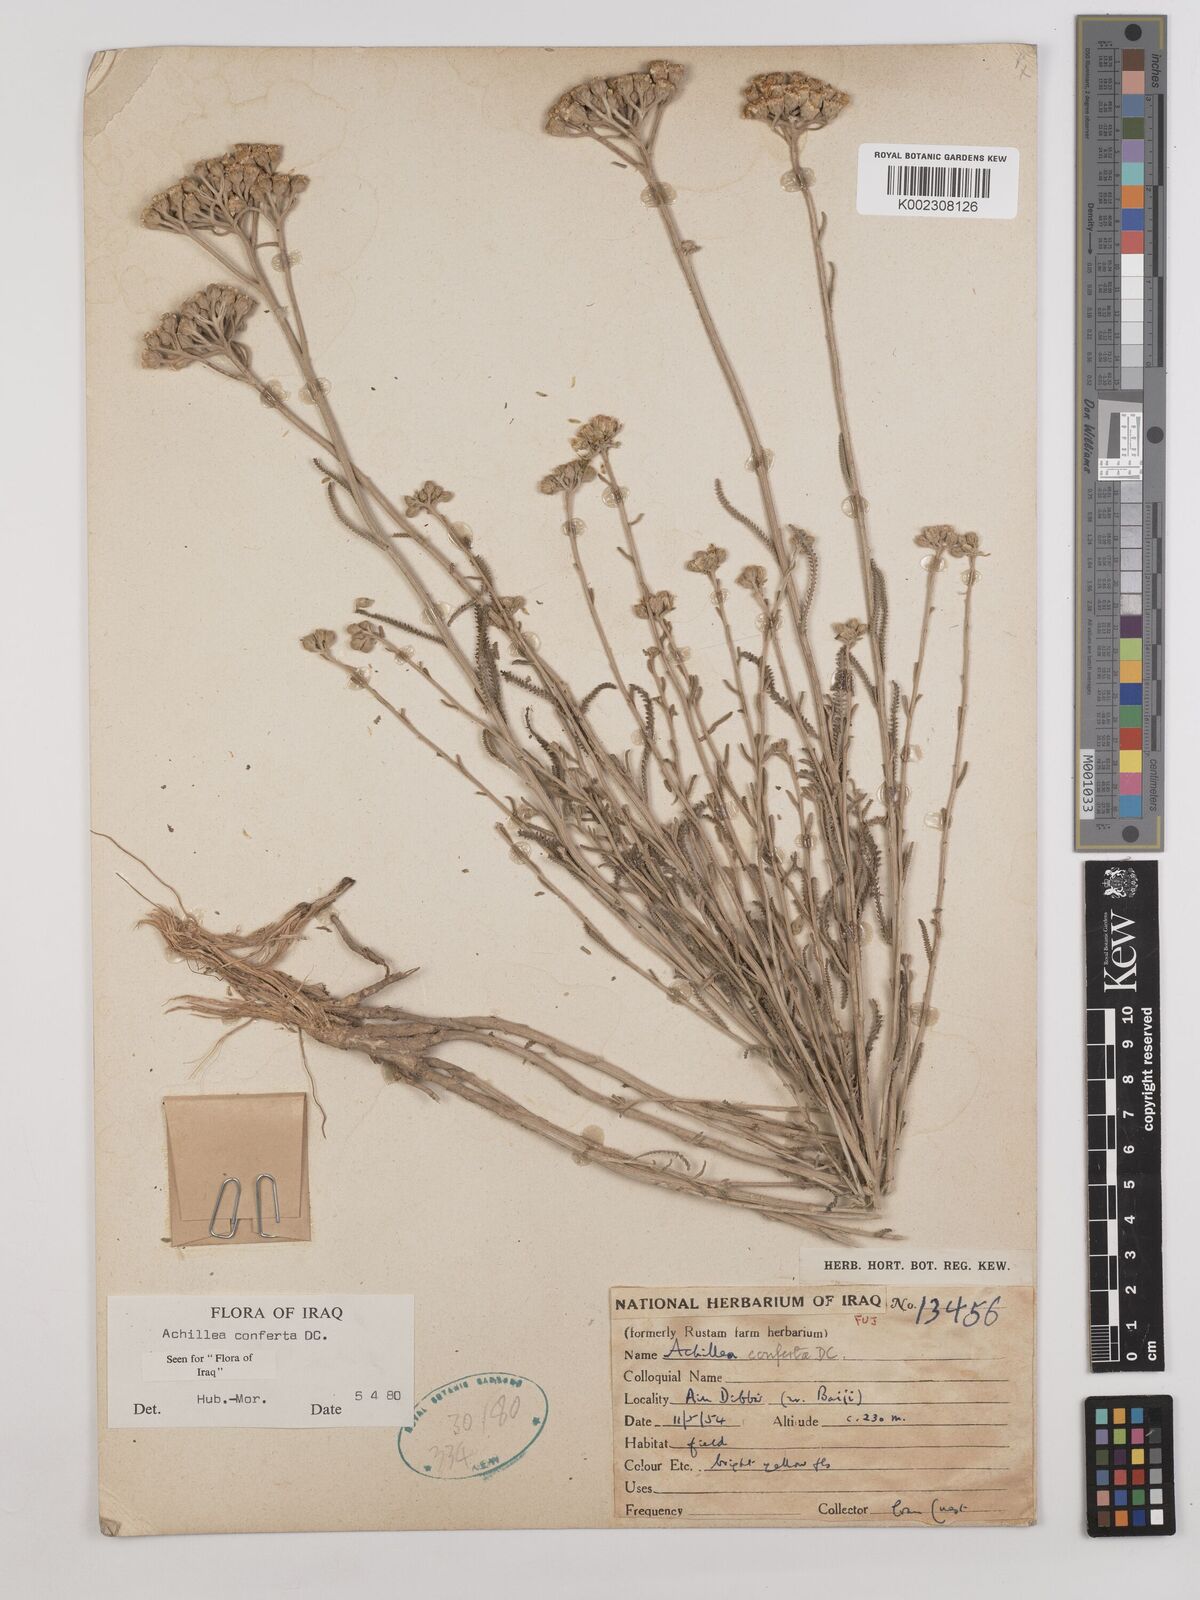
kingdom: Plantae
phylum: Tracheophyta
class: Magnoliopsida
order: Asterales
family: Asteraceae
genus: Achillea
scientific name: Achillea conferta
